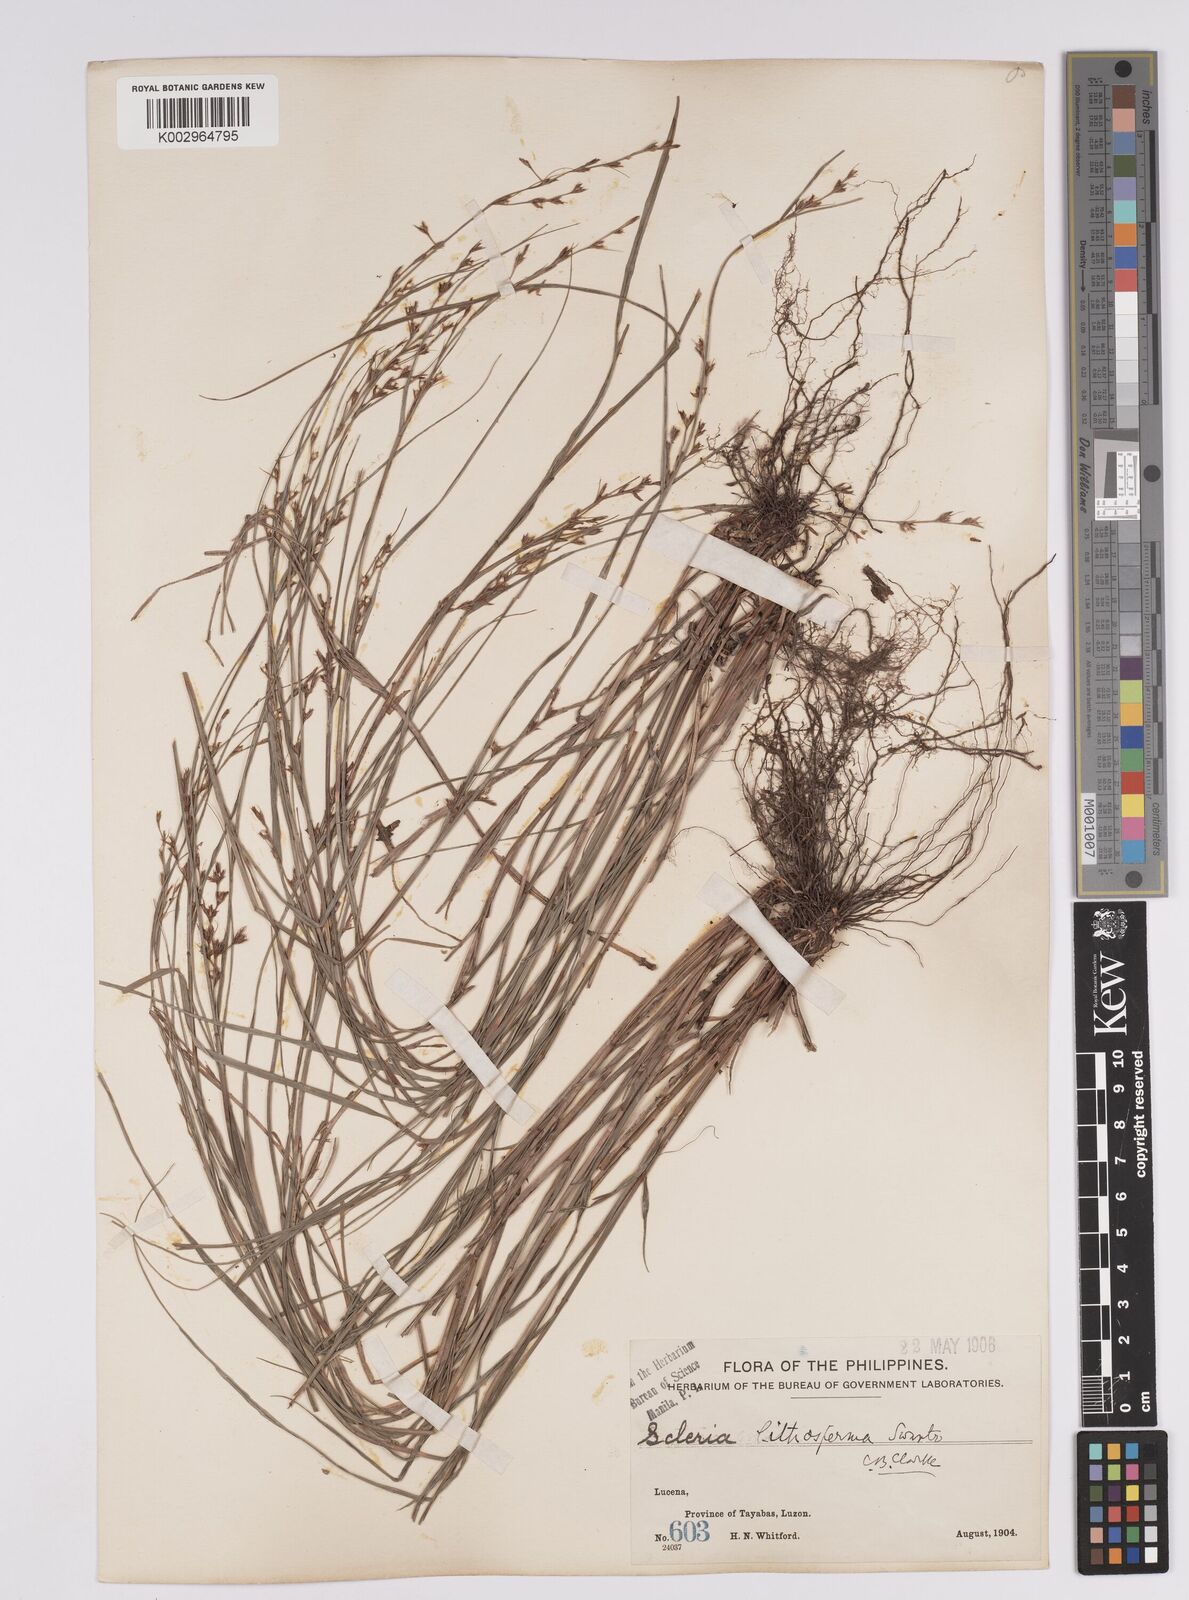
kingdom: Plantae
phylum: Tracheophyta
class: Liliopsida
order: Poales
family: Cyperaceae
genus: Scleria
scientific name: Scleria lithosperma
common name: Florida keys nut-rush
